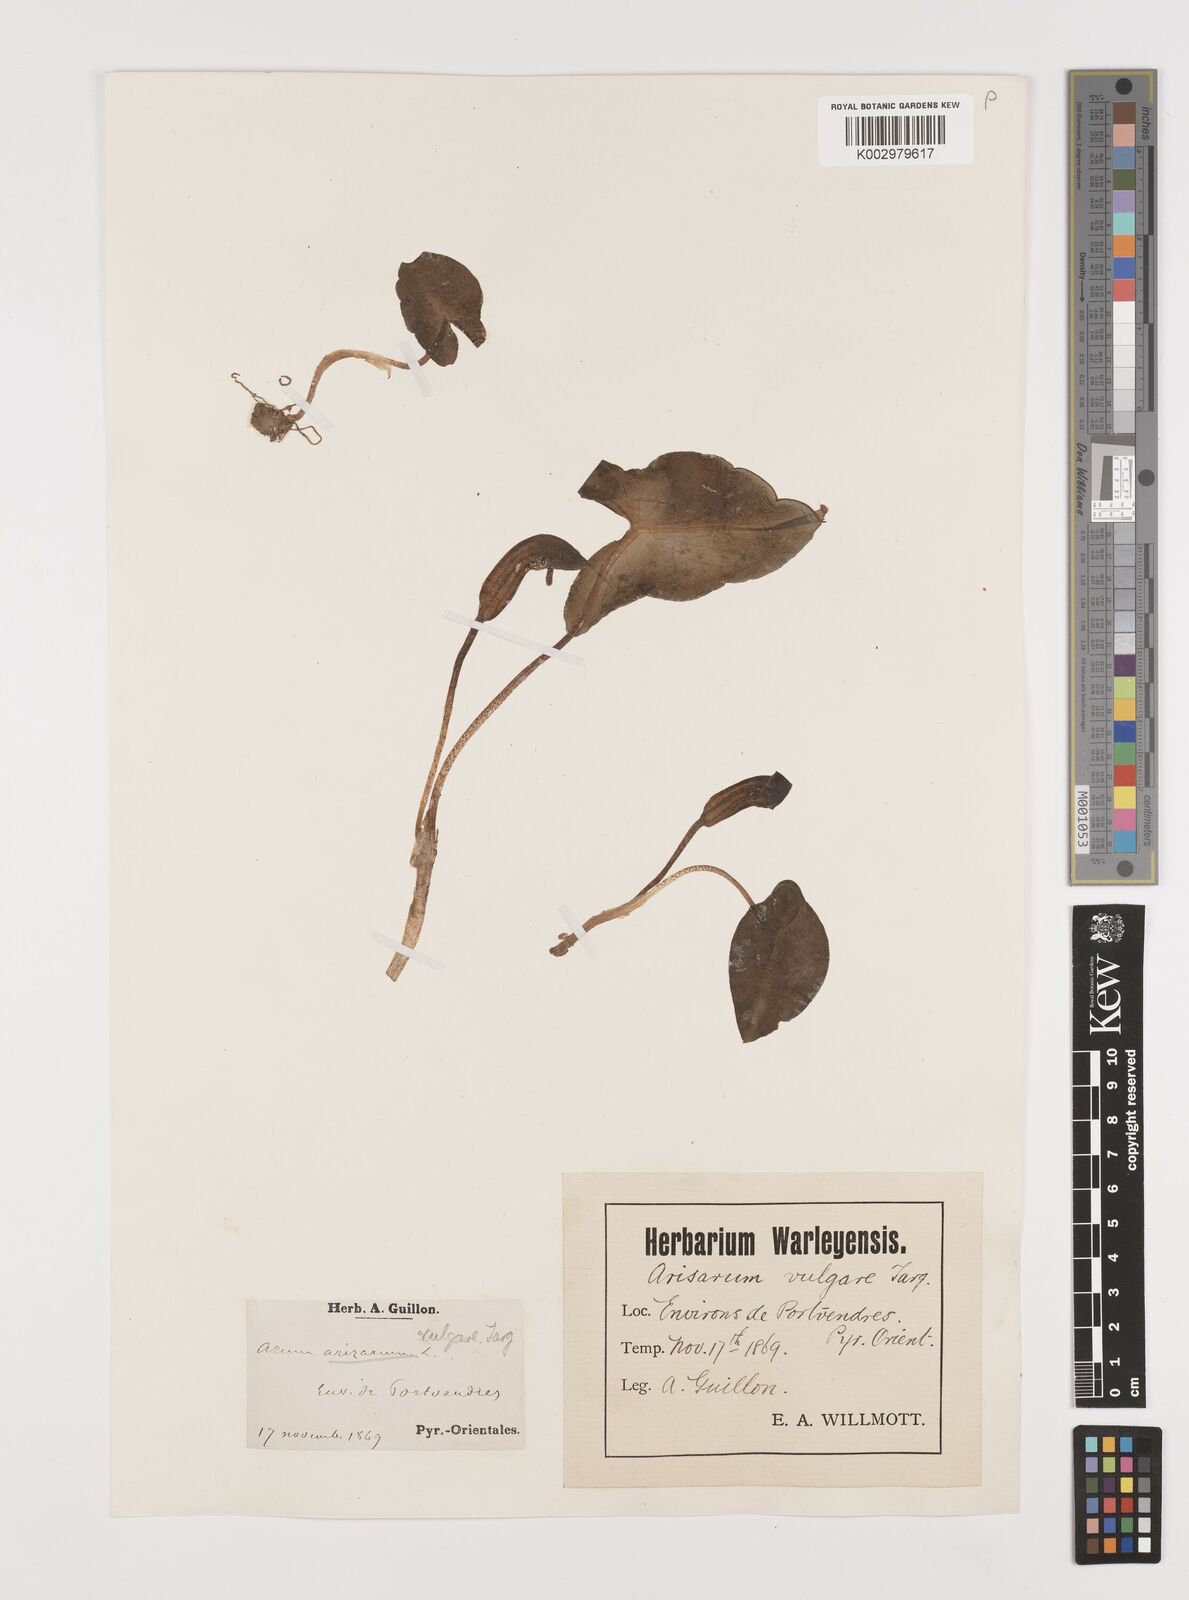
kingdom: Plantae
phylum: Tracheophyta
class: Liliopsida
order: Alismatales
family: Araceae
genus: Arisarum
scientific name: Arisarum vulgare
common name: Common arisarum
